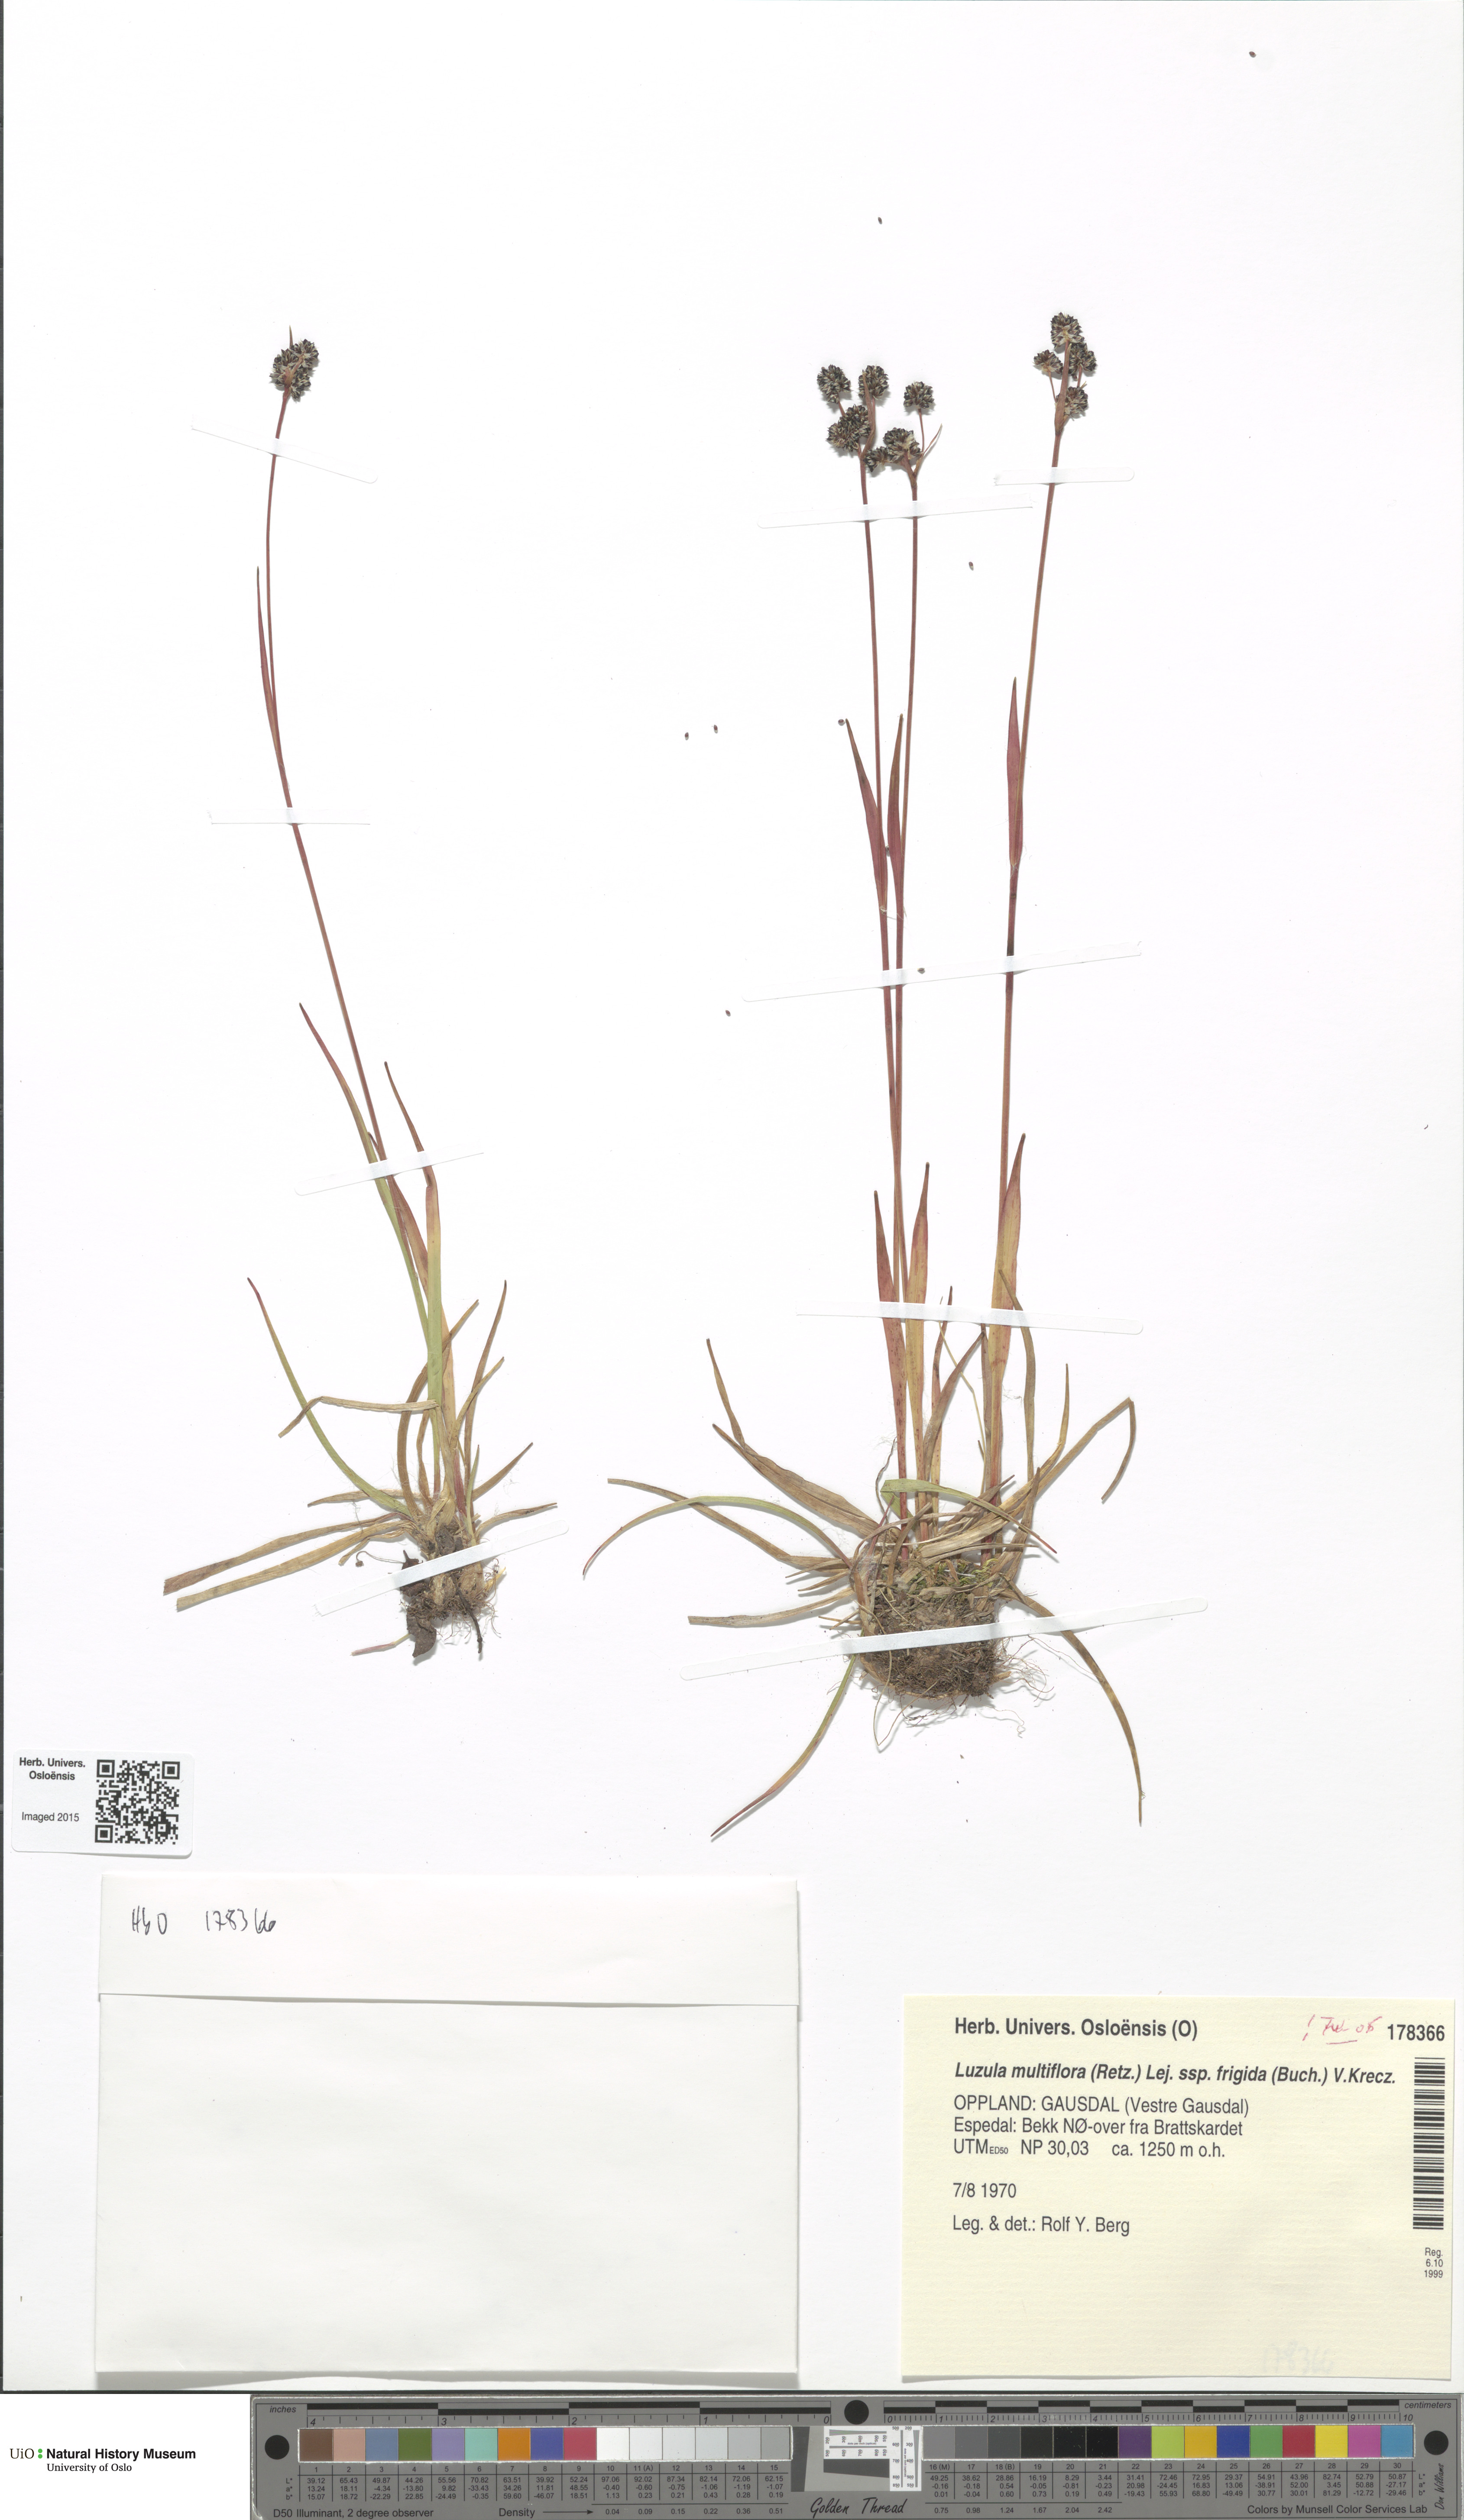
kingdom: Plantae
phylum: Tracheophyta
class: Liliopsida
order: Poales
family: Juncaceae
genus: Luzula
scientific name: Luzula multiflora
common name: Heath wood-rush
